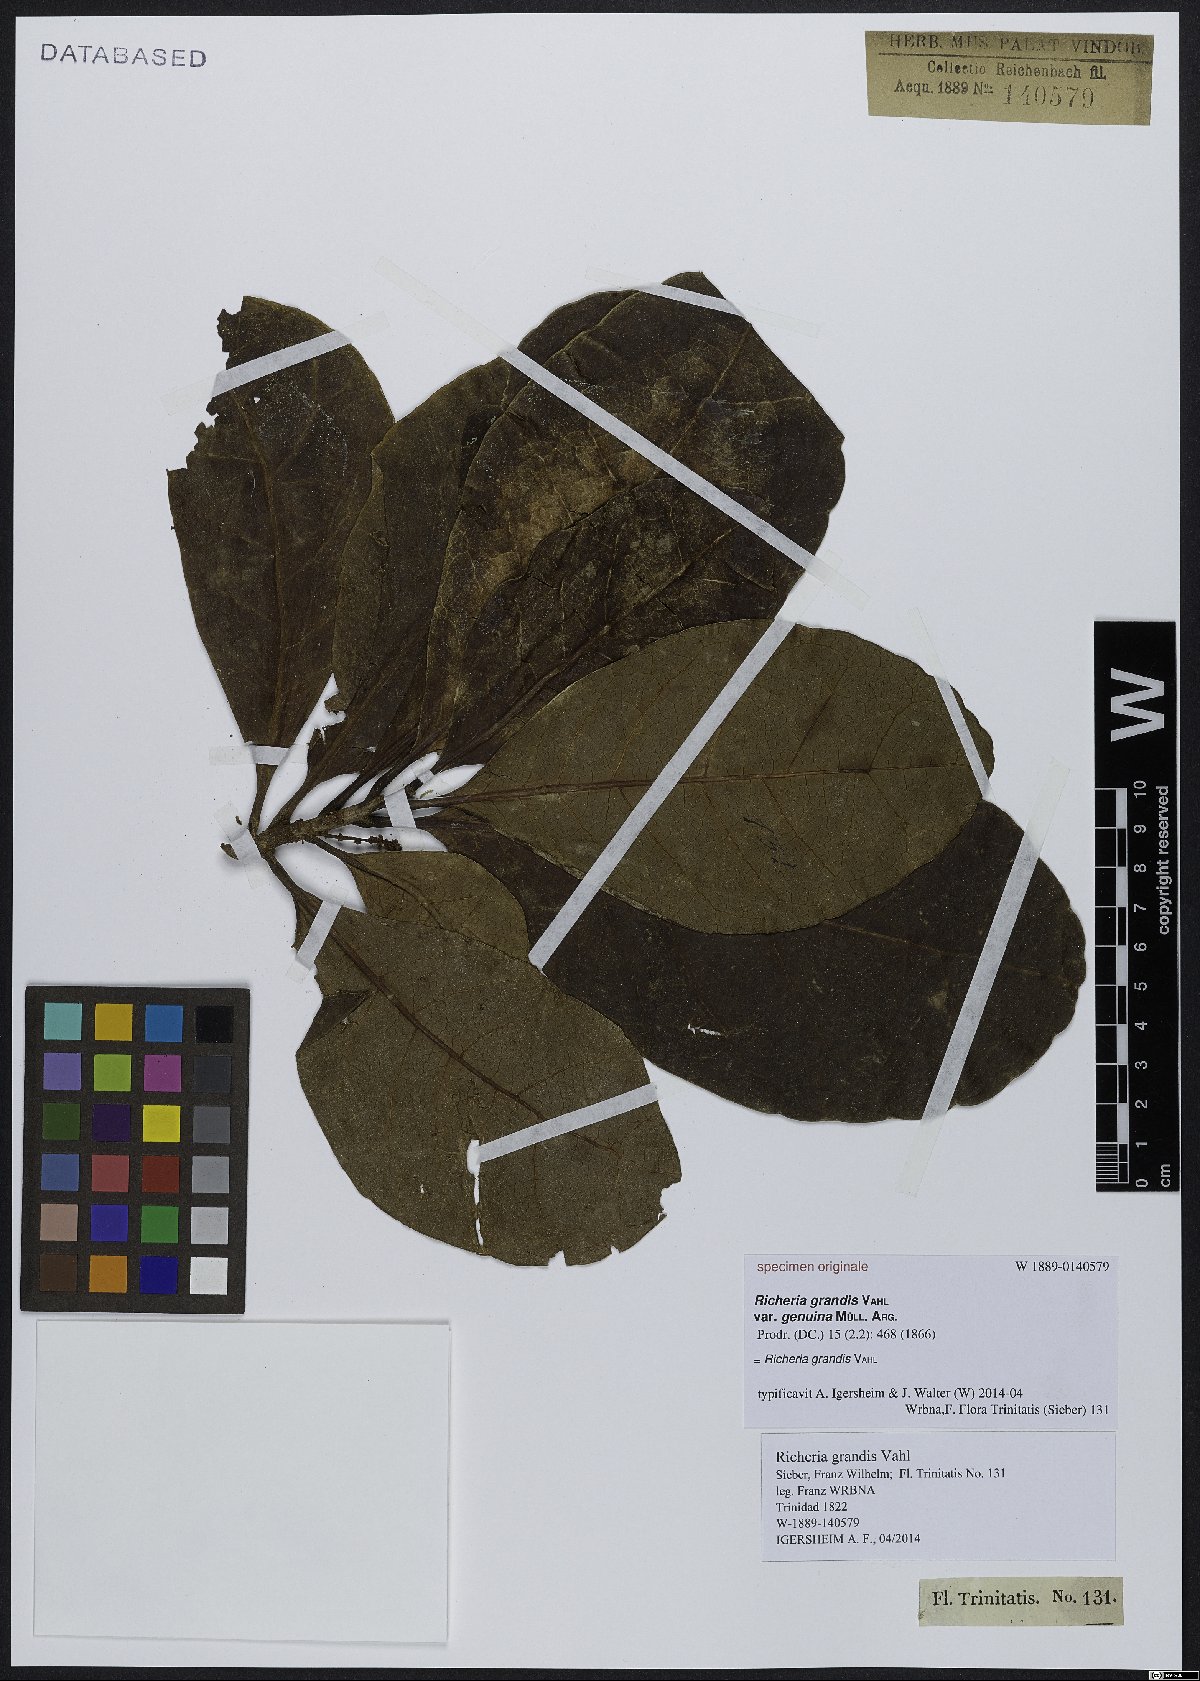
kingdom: Plantae
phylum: Tracheophyta
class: Magnoliopsida
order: Malpighiales
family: Phyllanthaceae
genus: Richeria
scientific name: Richeria grandis
